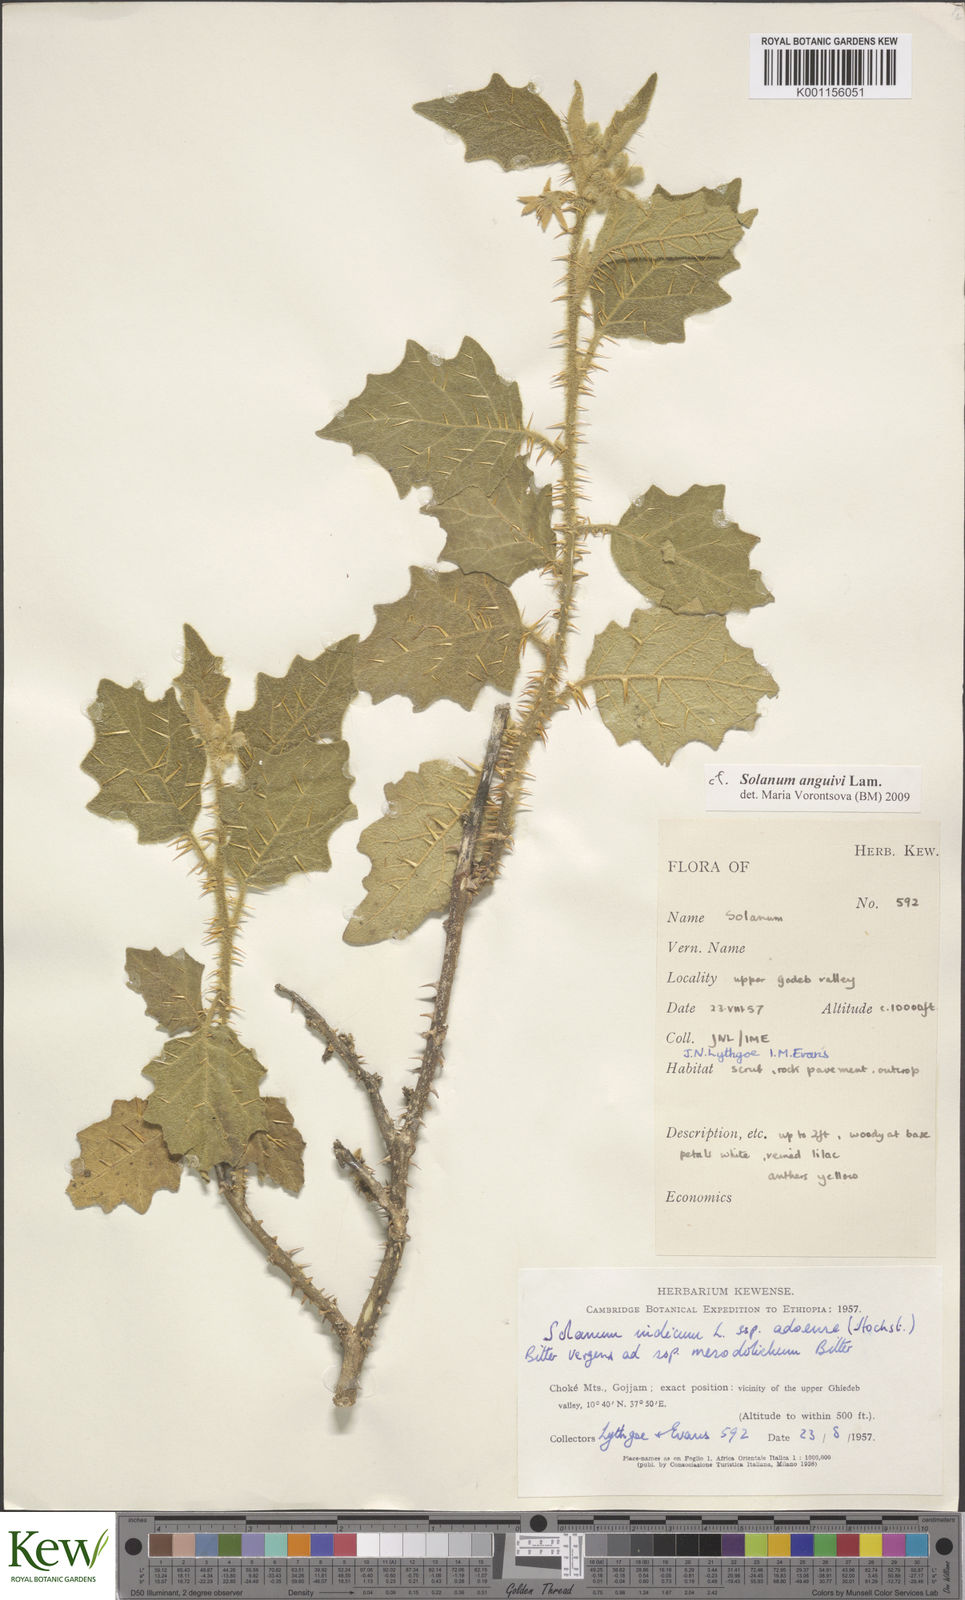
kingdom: Plantae
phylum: Tracheophyta
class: Magnoliopsida
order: Solanales
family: Solanaceae
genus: Solanum
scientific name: Solanum anguivi
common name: Forest bitterberry
